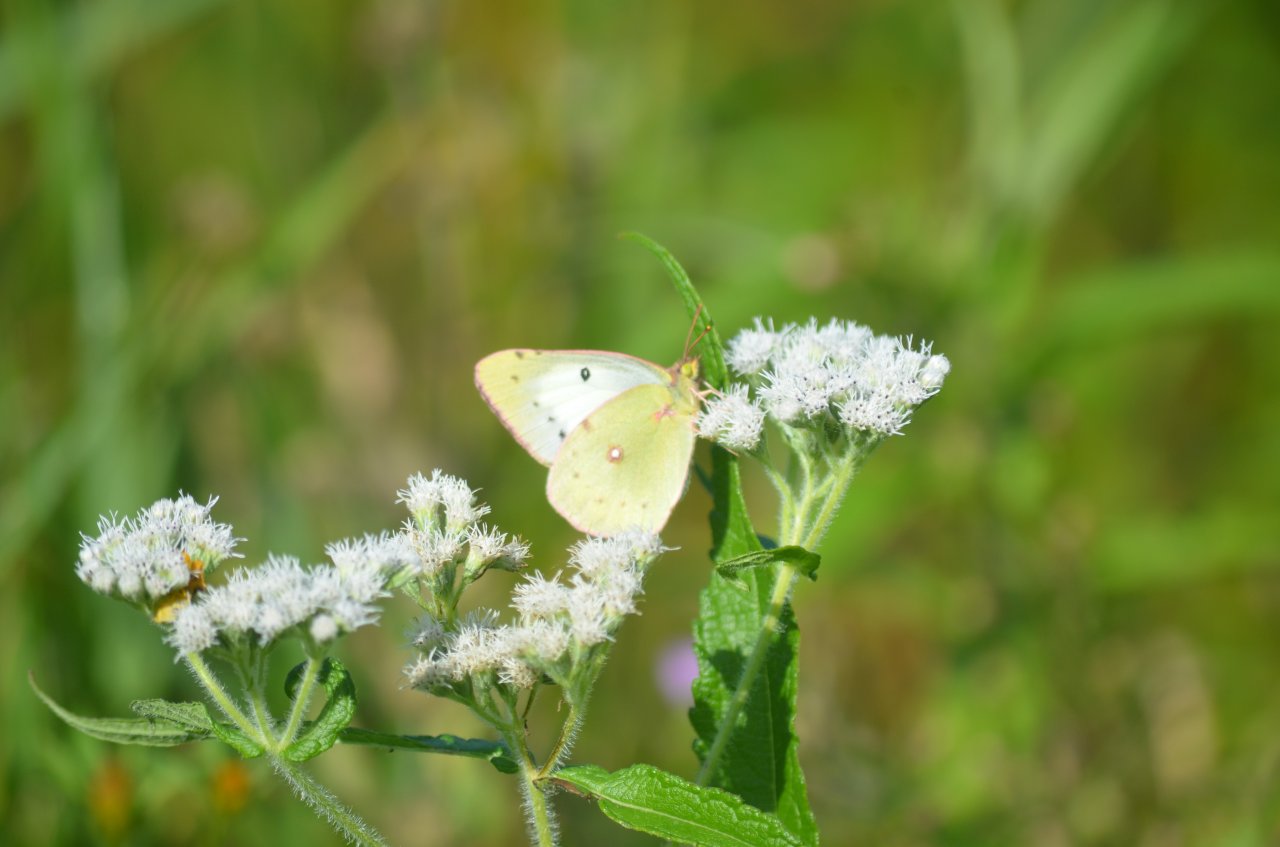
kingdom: Animalia
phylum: Arthropoda
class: Insecta
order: Lepidoptera
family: Pieridae
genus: Colias
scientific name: Colias philodice
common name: Clouded Sulphur
